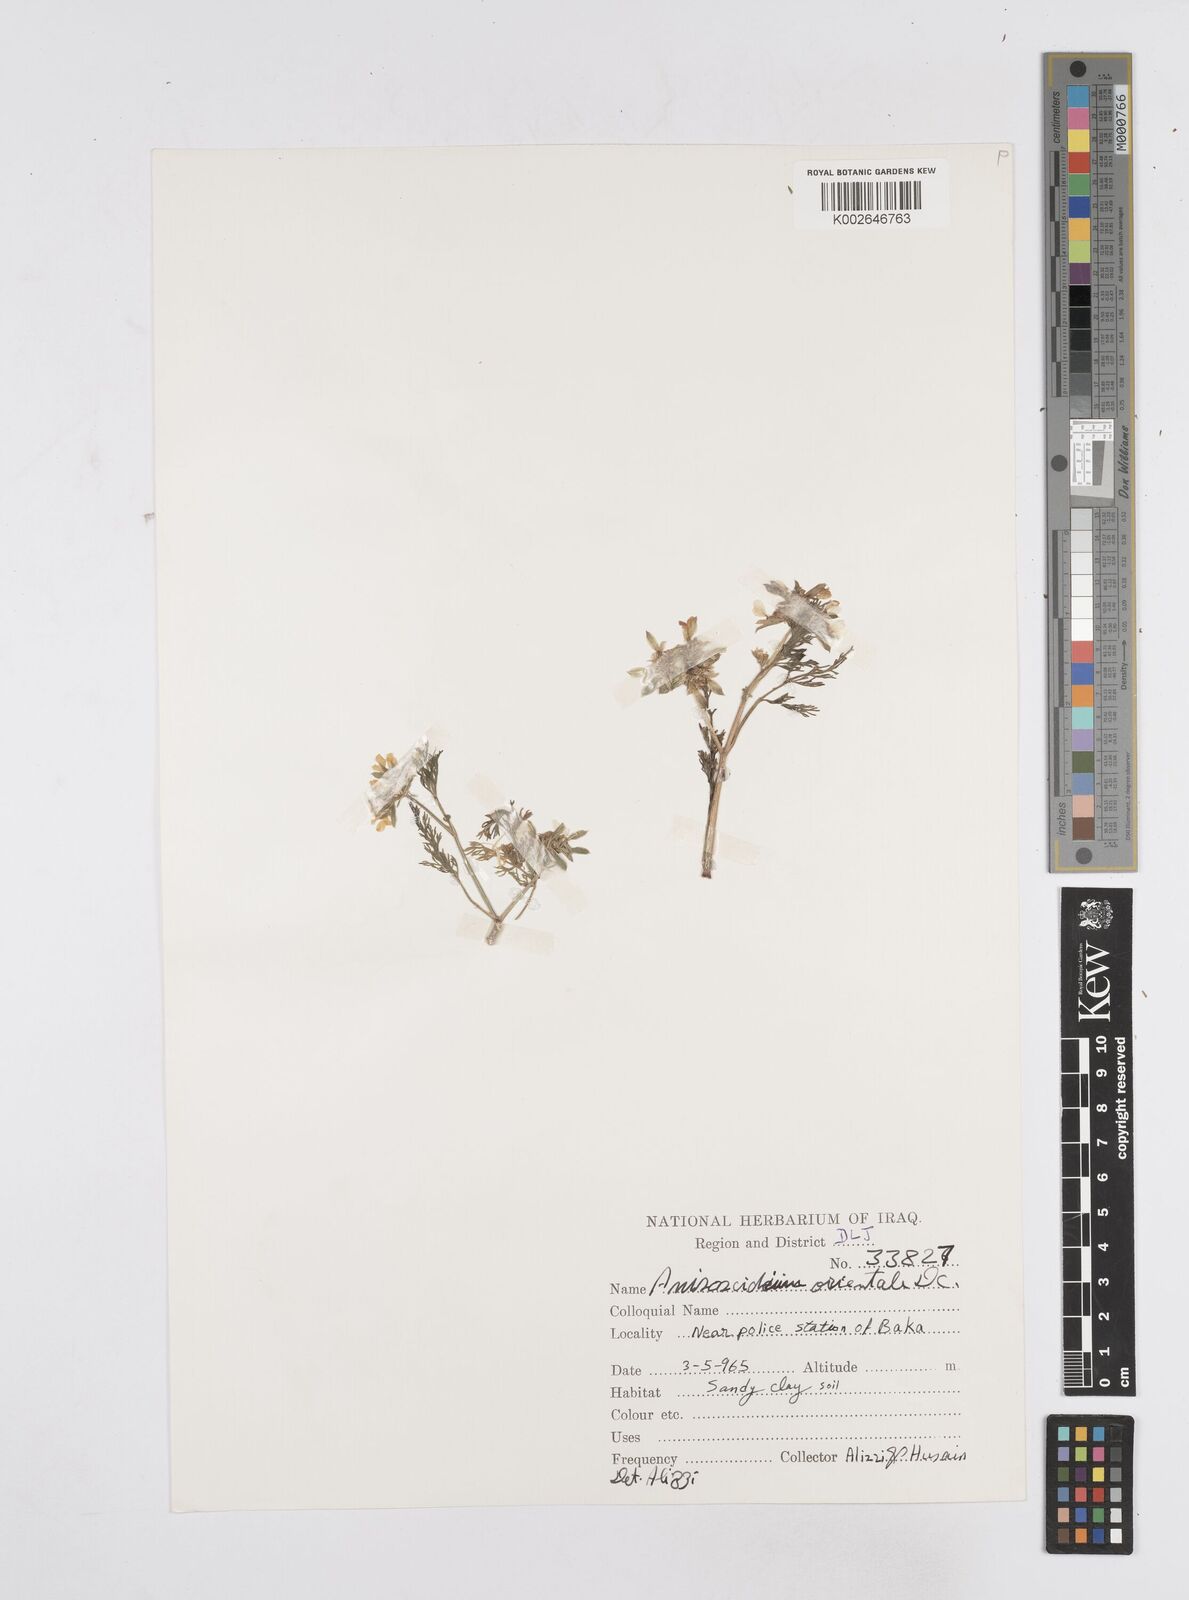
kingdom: Plantae
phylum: Tracheophyta
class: Magnoliopsida
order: Apiales
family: Apiaceae
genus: Anisosciadium
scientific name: Anisosciadium orientale
